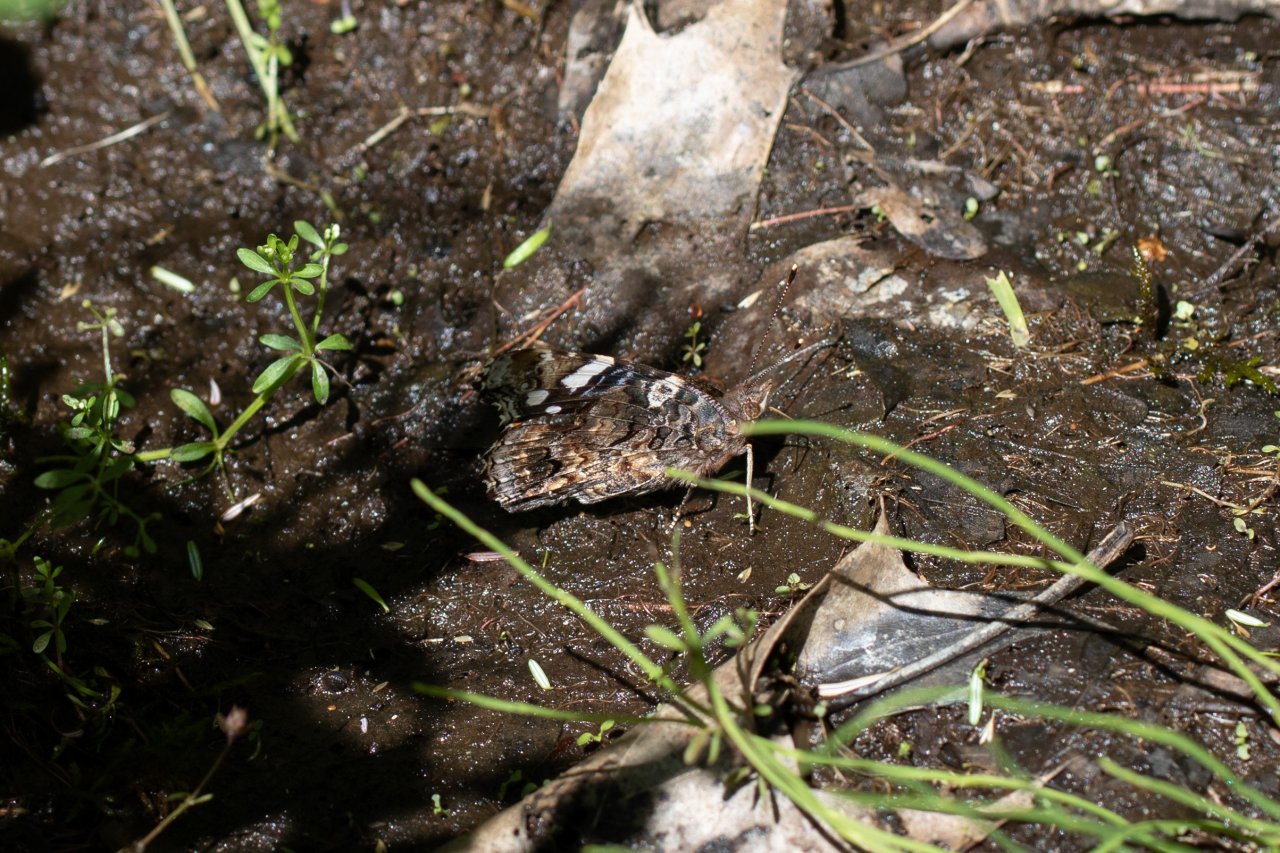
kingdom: Animalia
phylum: Arthropoda
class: Insecta
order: Lepidoptera
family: Nymphalidae
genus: Vanessa
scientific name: Vanessa atalanta
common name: Red Admiral
